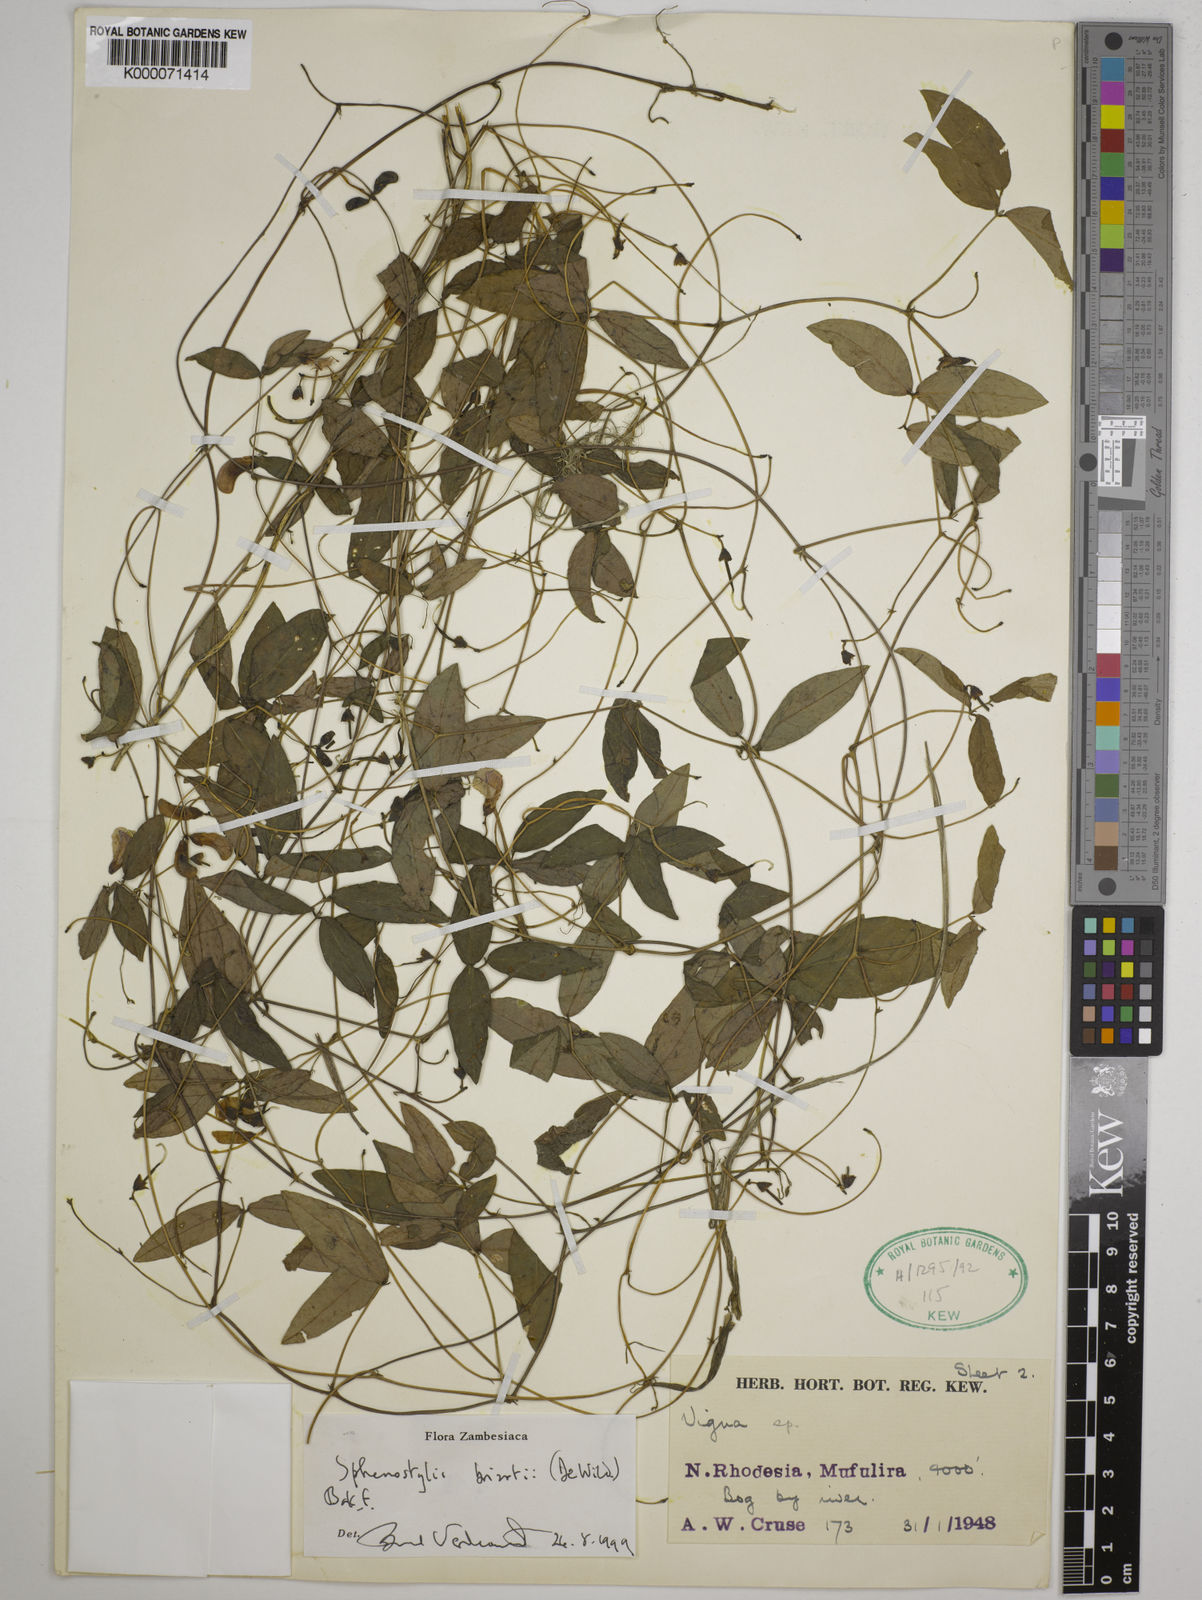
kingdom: Plantae
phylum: Tracheophyta
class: Magnoliopsida
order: Fabales
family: Fabaceae
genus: Sphenostylis
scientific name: Sphenostylis briartii
